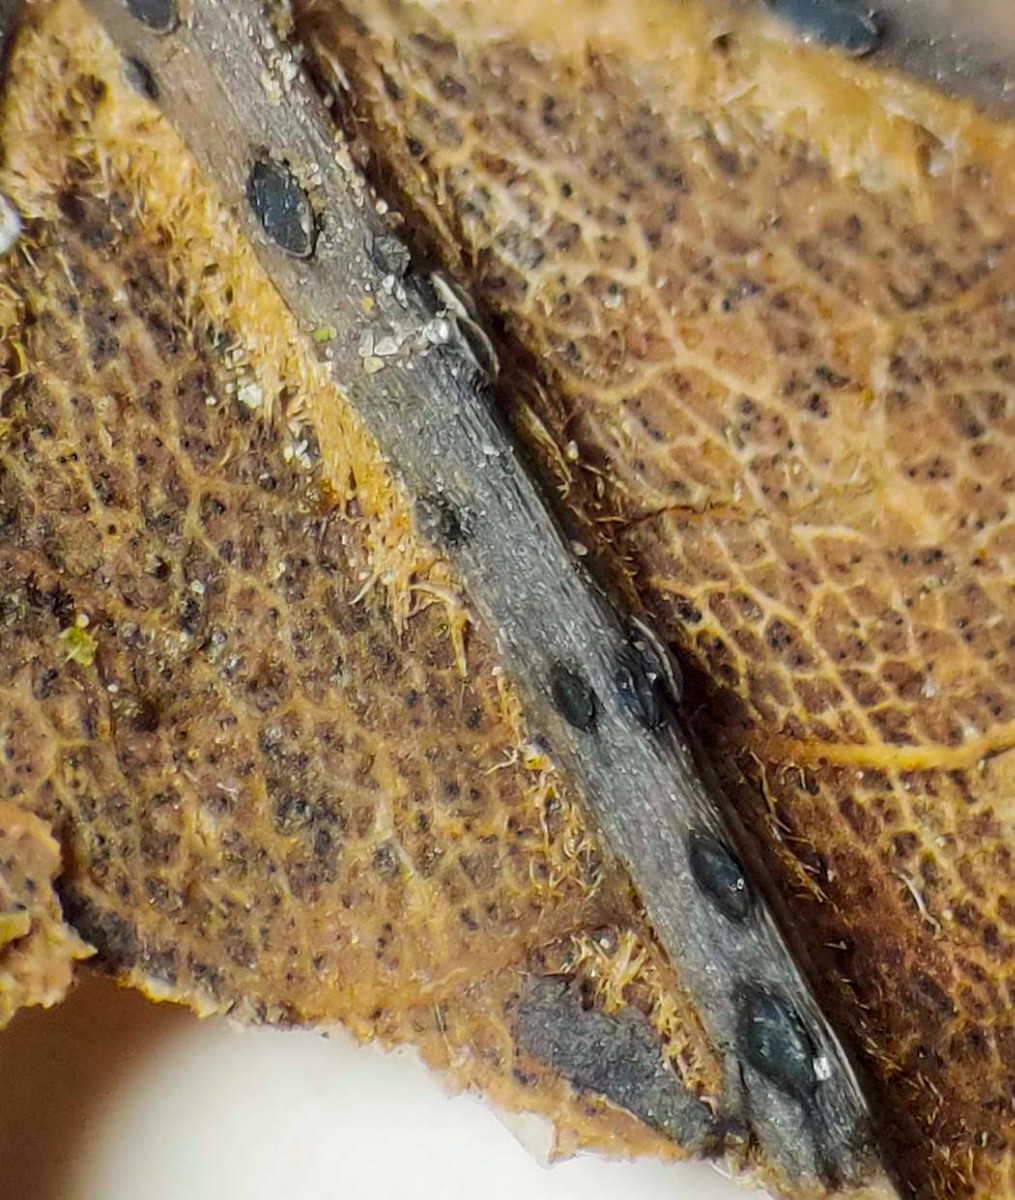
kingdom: Fungi
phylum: Ascomycota
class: Leotiomycetes
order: Helotiales
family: Ploettnerulaceae
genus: Pyrenopeziza
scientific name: Pyrenopeziza petiolaris
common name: ahorn-kerneskive
